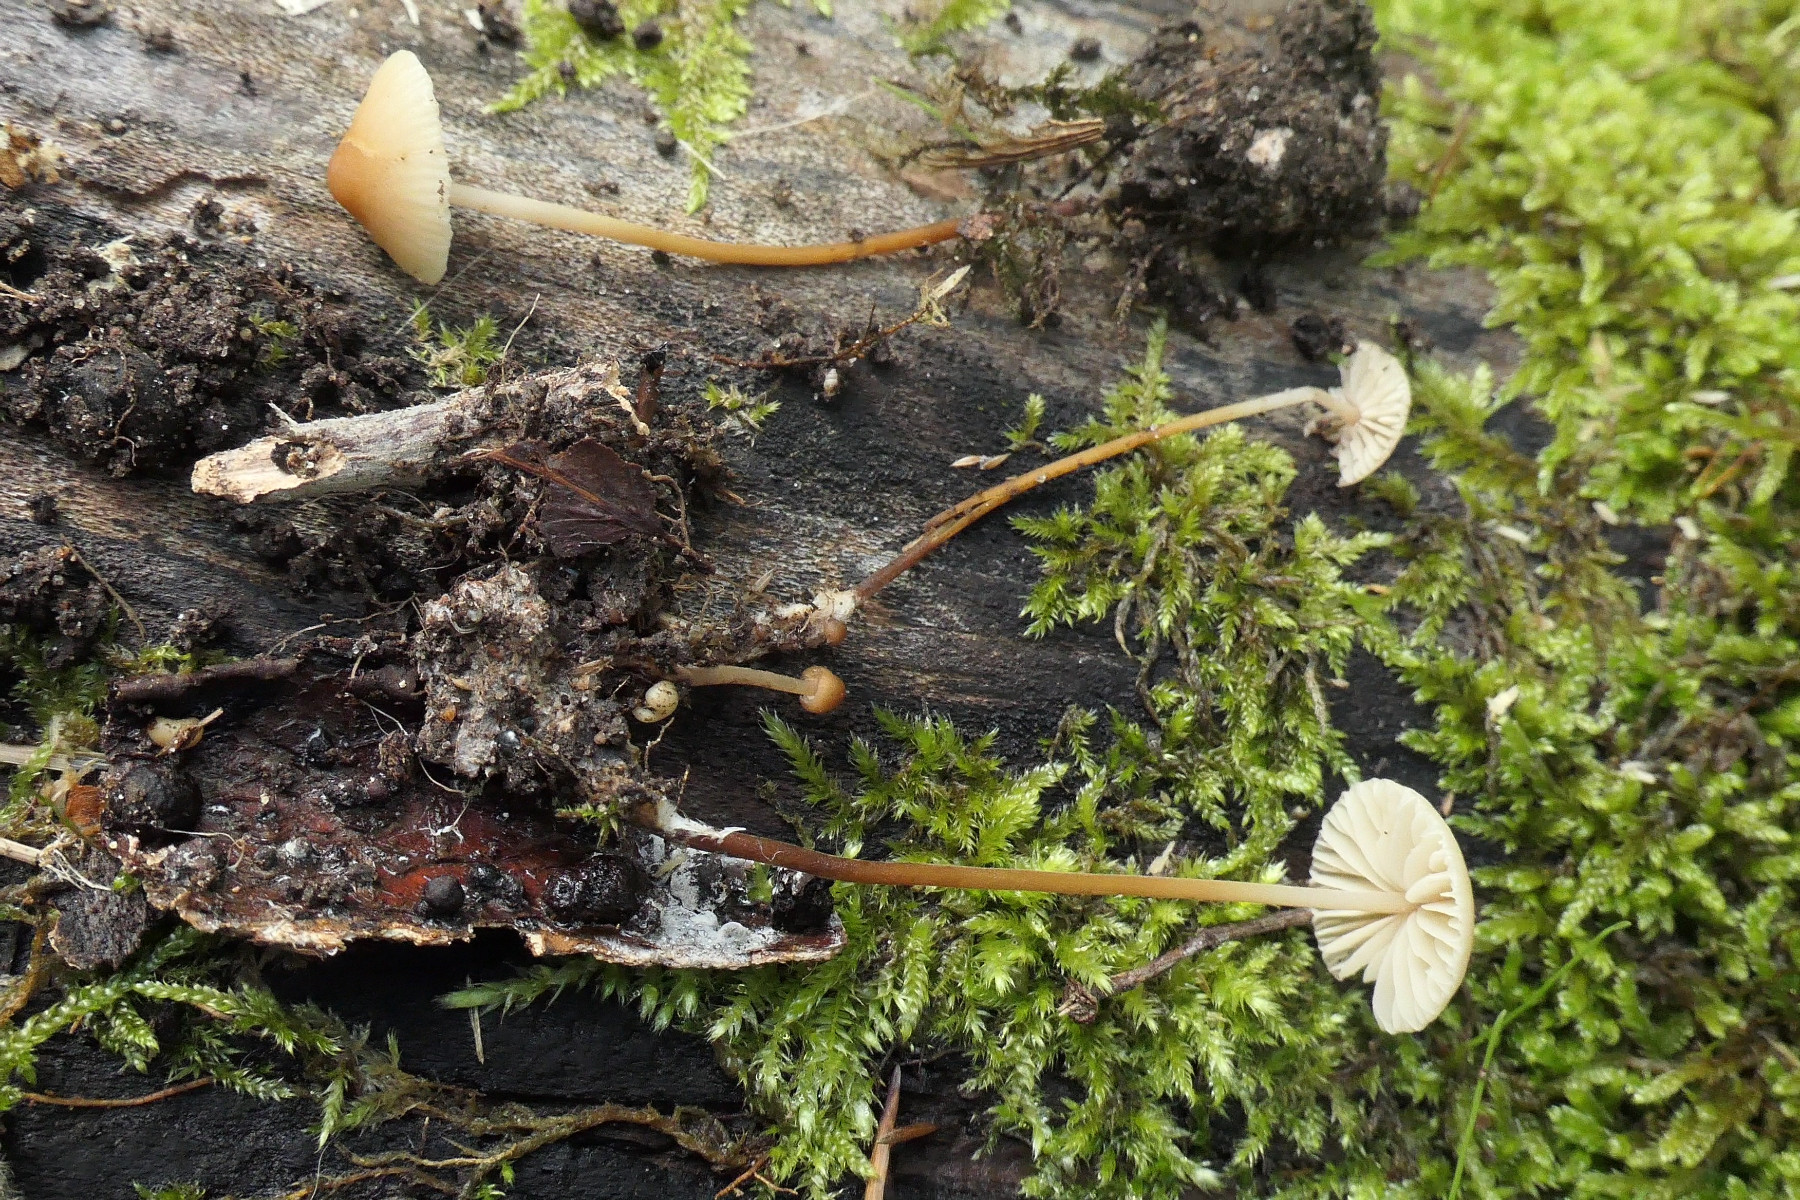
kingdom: Fungi
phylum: Basidiomycota
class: Agaricomycetes
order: Agaricales
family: Marasmiaceae
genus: Marasmius
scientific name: Marasmius torquescens
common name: filtfodet bruskhat
